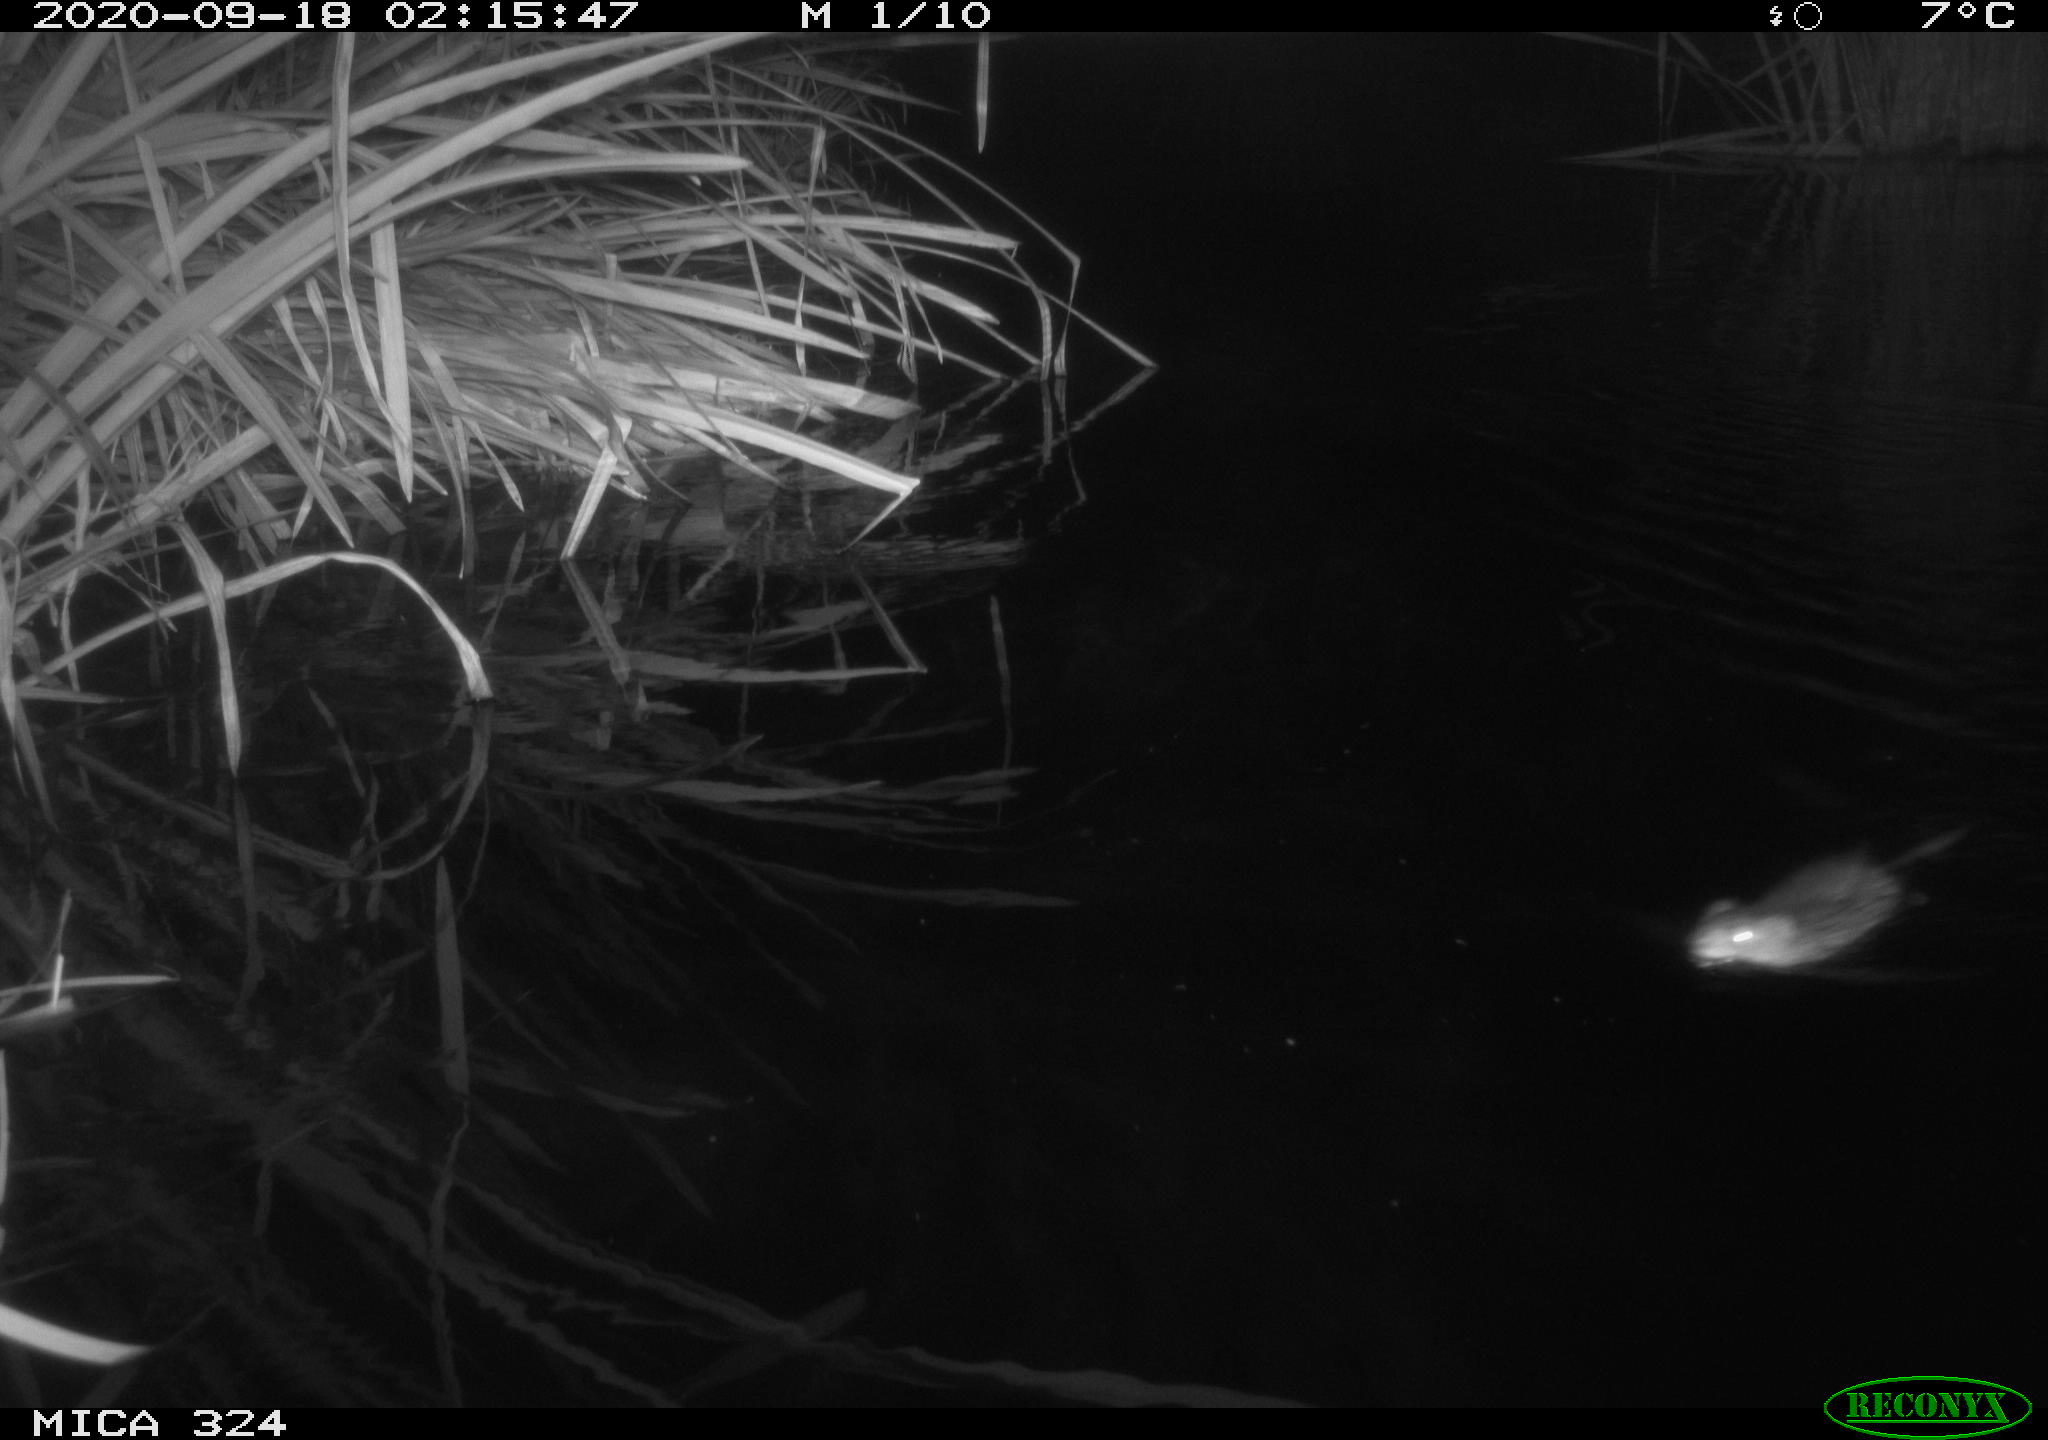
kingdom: Animalia
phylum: Chordata
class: Mammalia
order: Rodentia
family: Cricetidae
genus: Ondatra
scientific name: Ondatra zibethicus
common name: Muskrat
